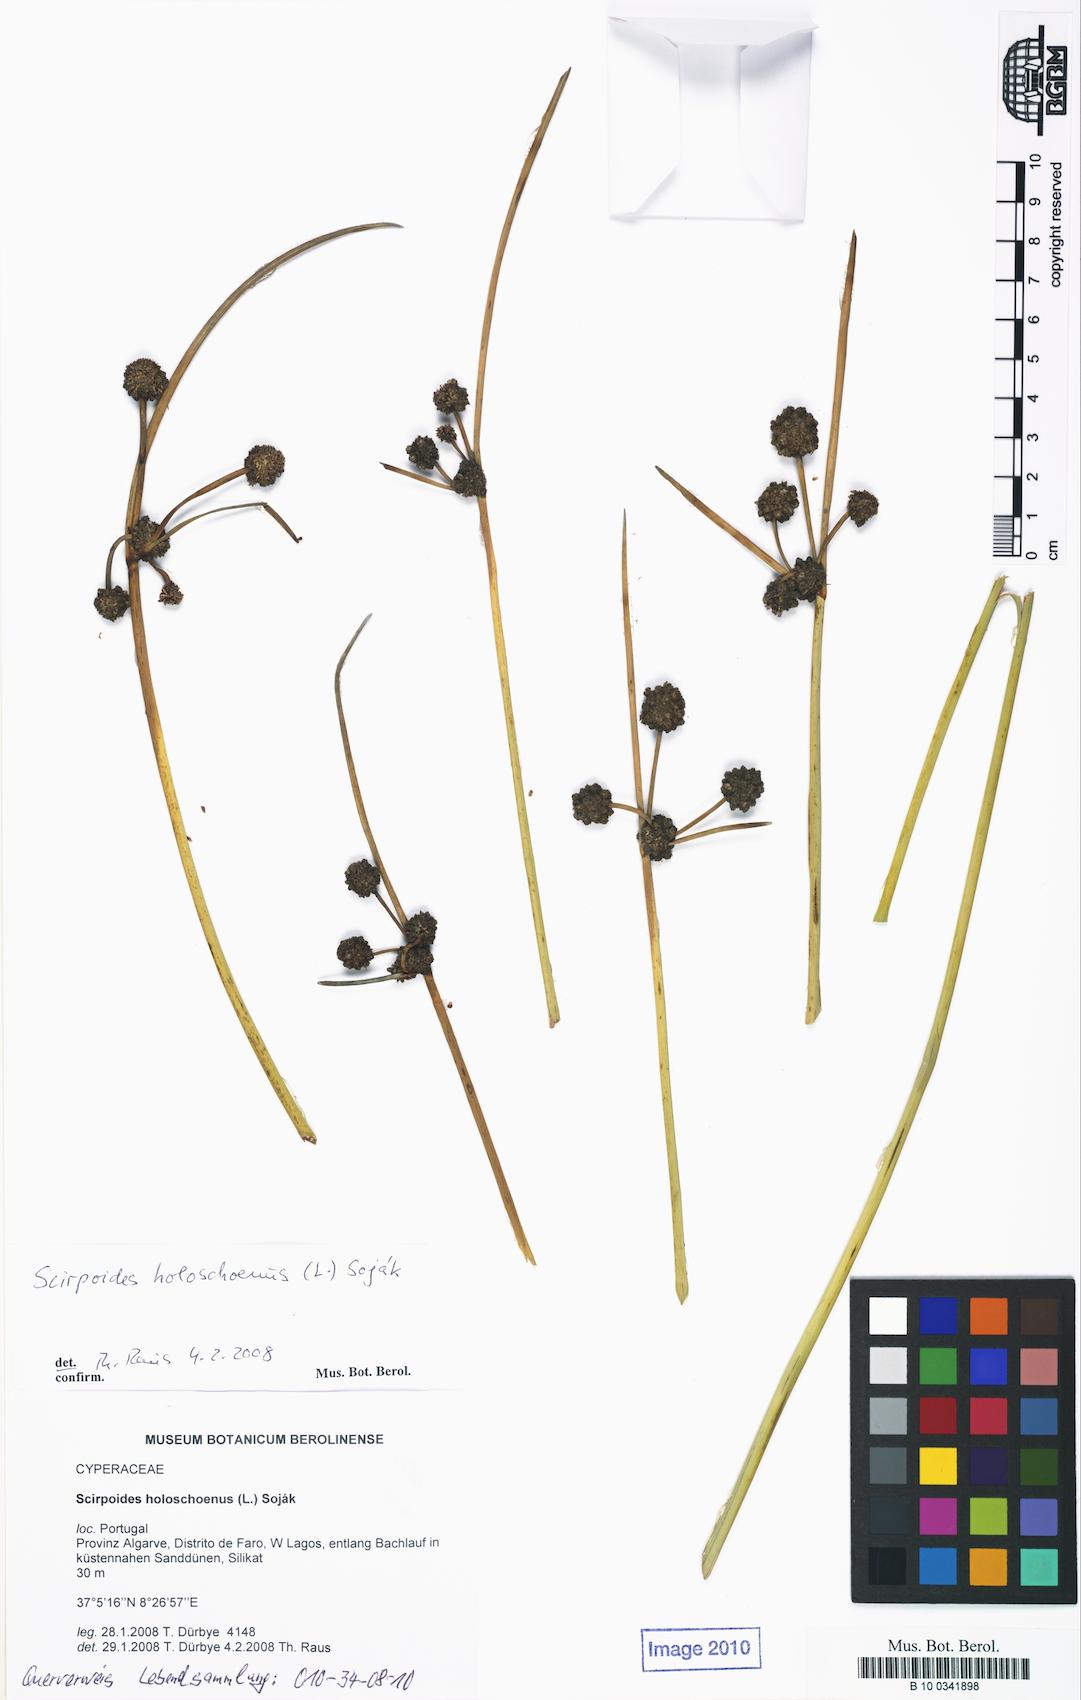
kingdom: Plantae
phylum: Tracheophyta
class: Liliopsida
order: Poales
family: Cyperaceae
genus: Scirpoides
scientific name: Scirpoides holoschoenus
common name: Round-headed club-rush
